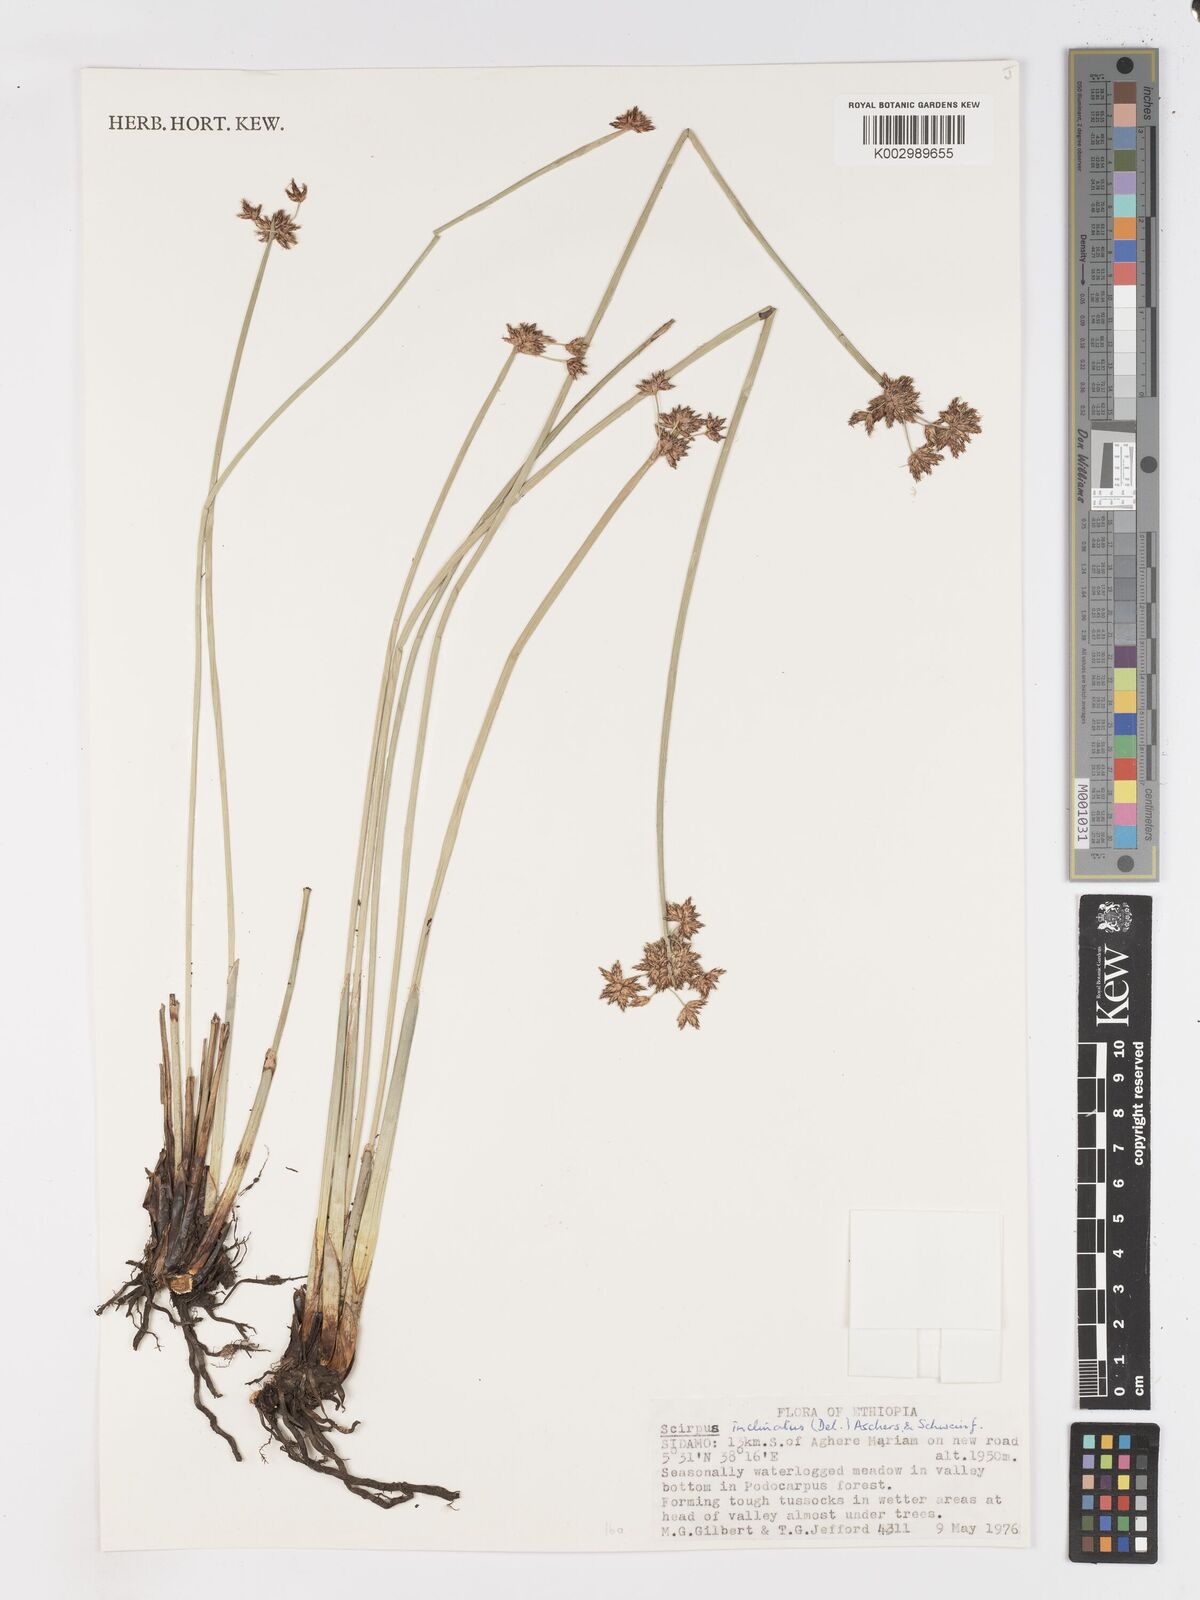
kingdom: Plantae
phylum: Tracheophyta
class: Liliopsida
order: Poales
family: Cyperaceae
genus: Schoenoplectiella
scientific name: Schoenoplectiella brachyceras
